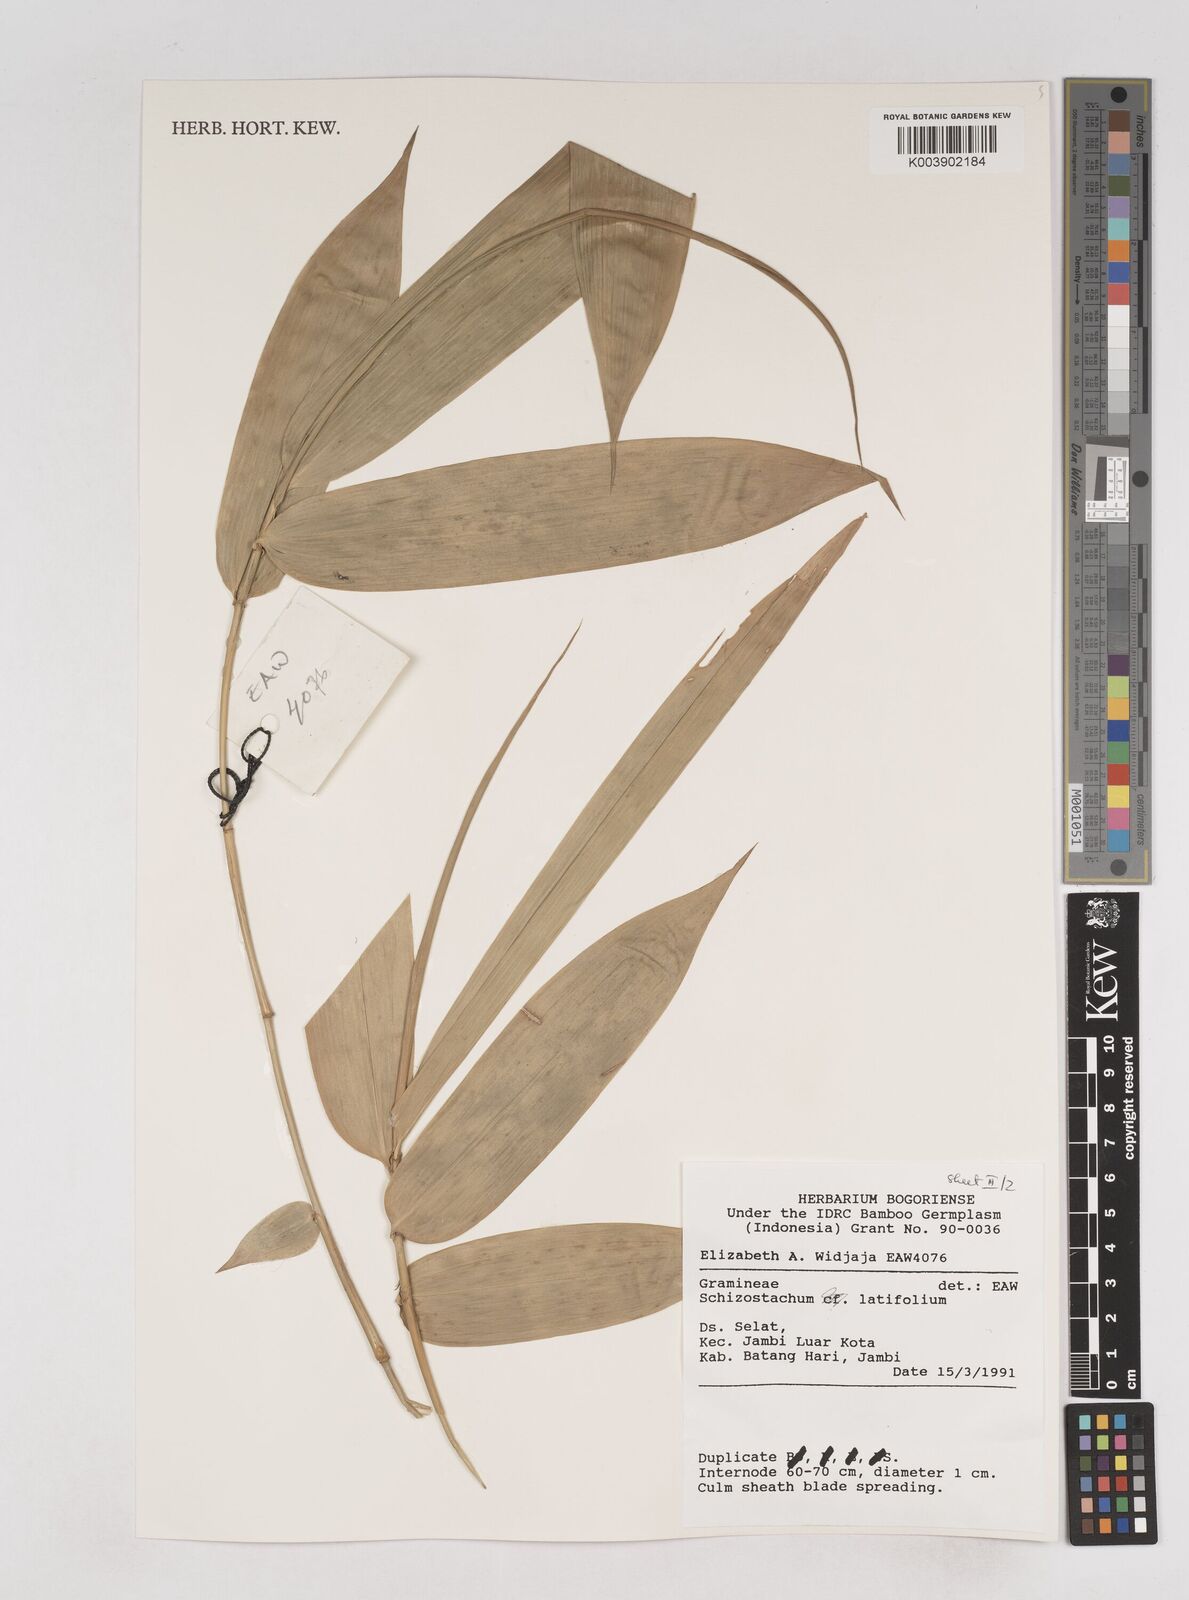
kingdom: Plantae
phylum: Tracheophyta
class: Liliopsida
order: Poales
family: Poaceae
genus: Schizostachyum
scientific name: Schizostachyum latifolium
